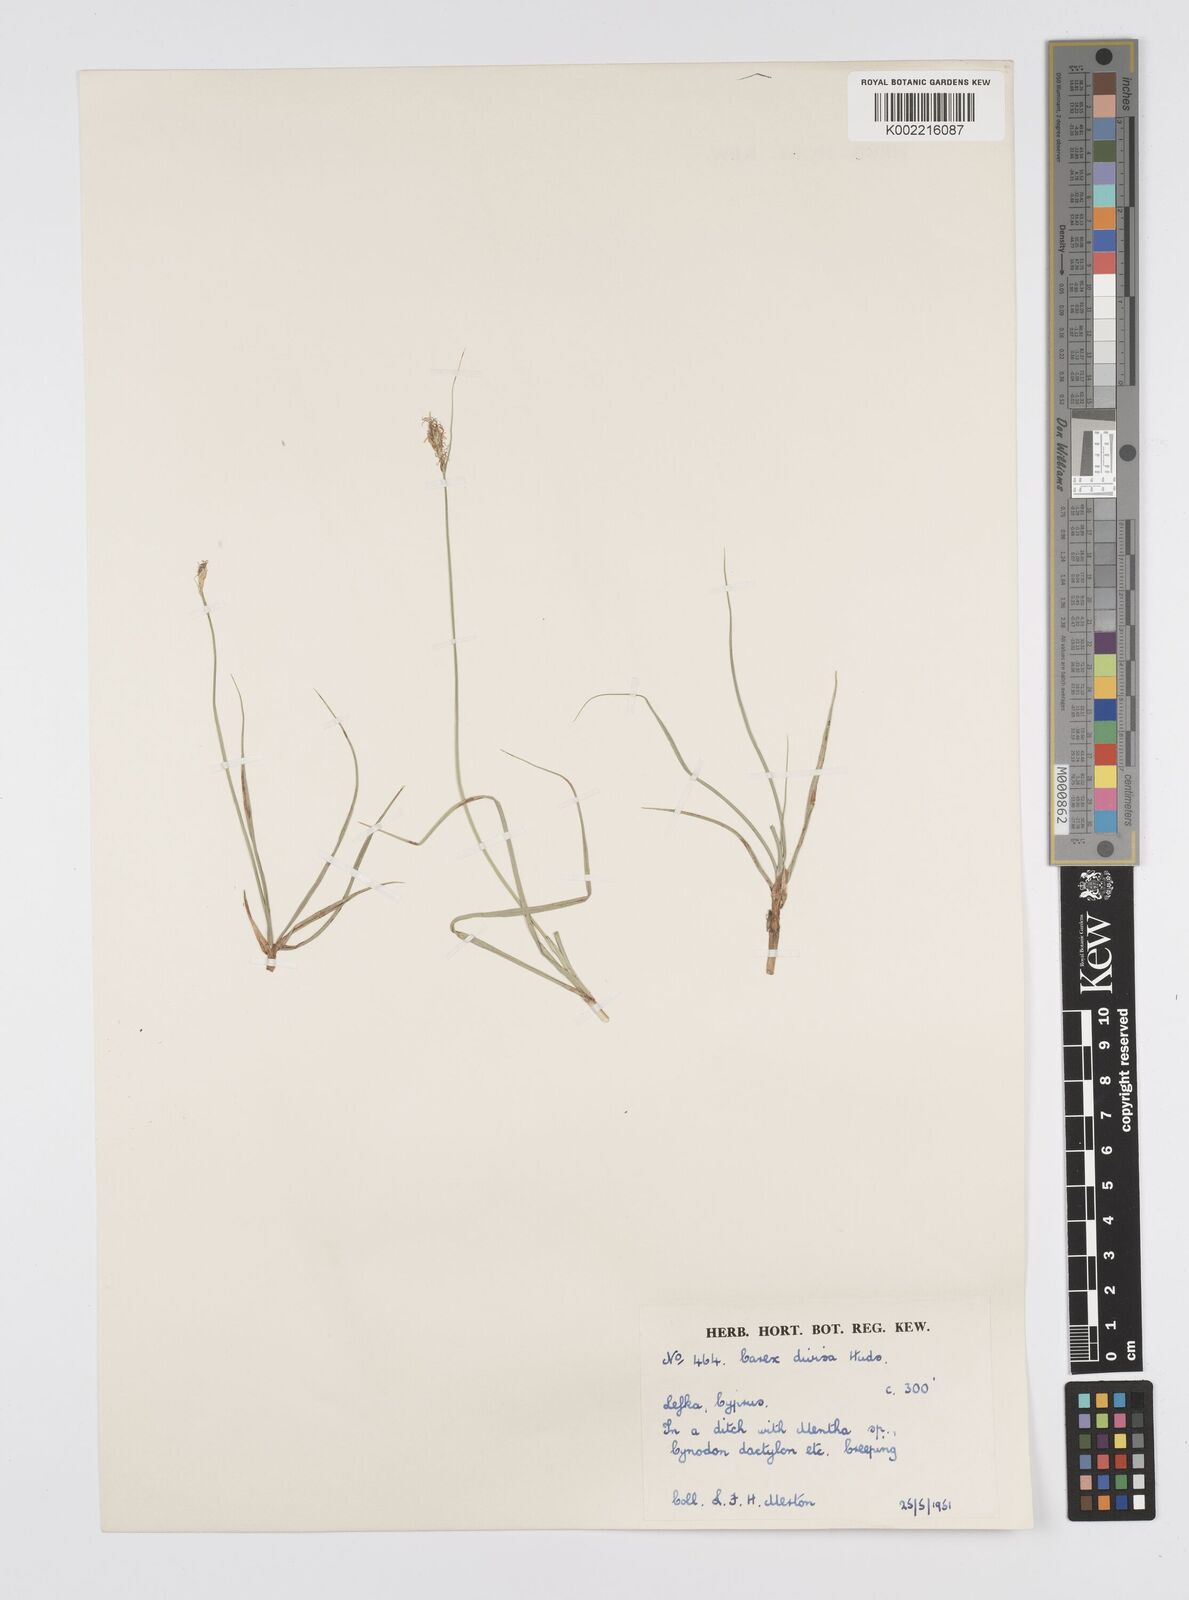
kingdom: Plantae
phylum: Tracheophyta
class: Liliopsida
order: Poales
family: Cyperaceae
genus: Carex
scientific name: Carex divisa
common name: Divided sedge
